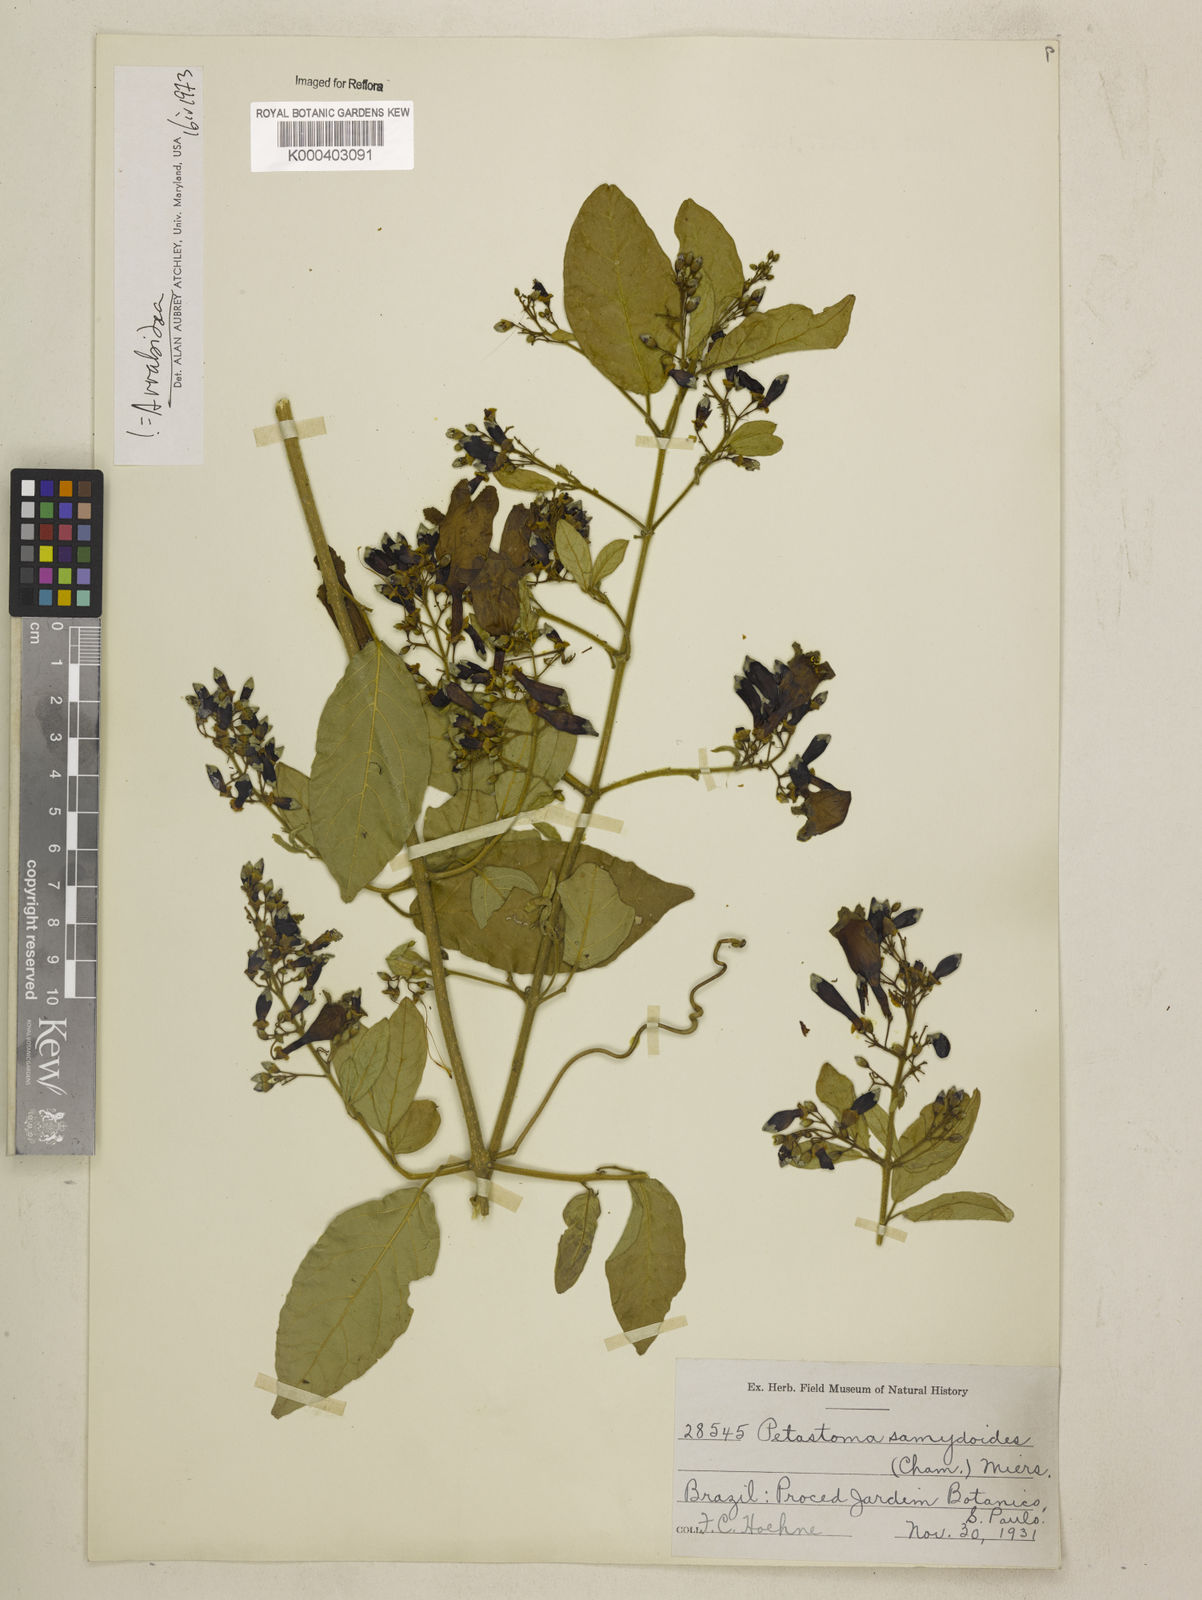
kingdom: Plantae
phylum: Tracheophyta
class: Magnoliopsida
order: Lamiales
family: Bignoniaceae
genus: Fridericia
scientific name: Fridericia samydoides
